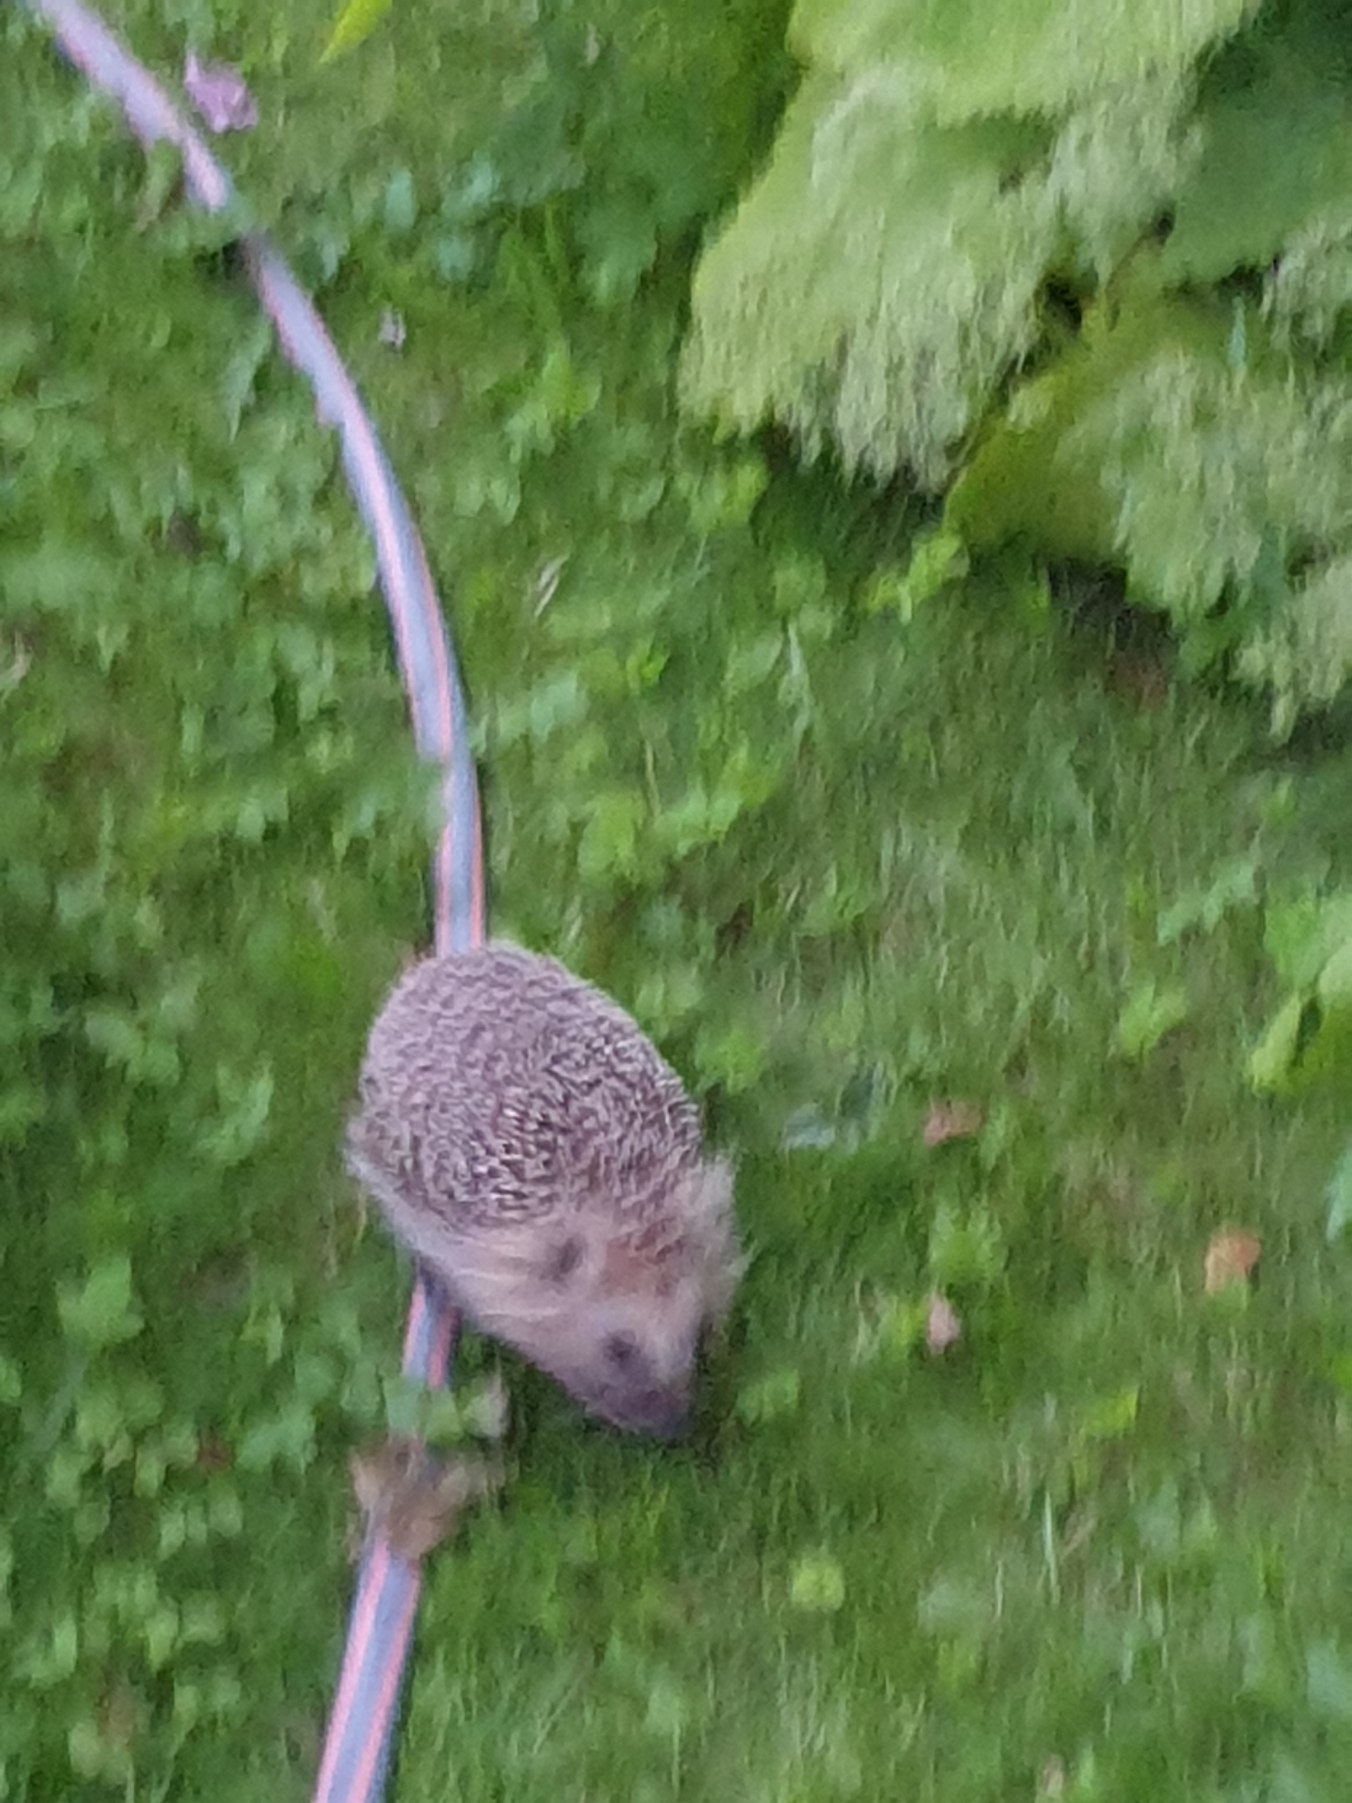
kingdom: Animalia
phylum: Chordata
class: Mammalia
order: Erinaceomorpha
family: Erinaceidae
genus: Erinaceus
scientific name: Erinaceus europaeus
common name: Pindsvin
